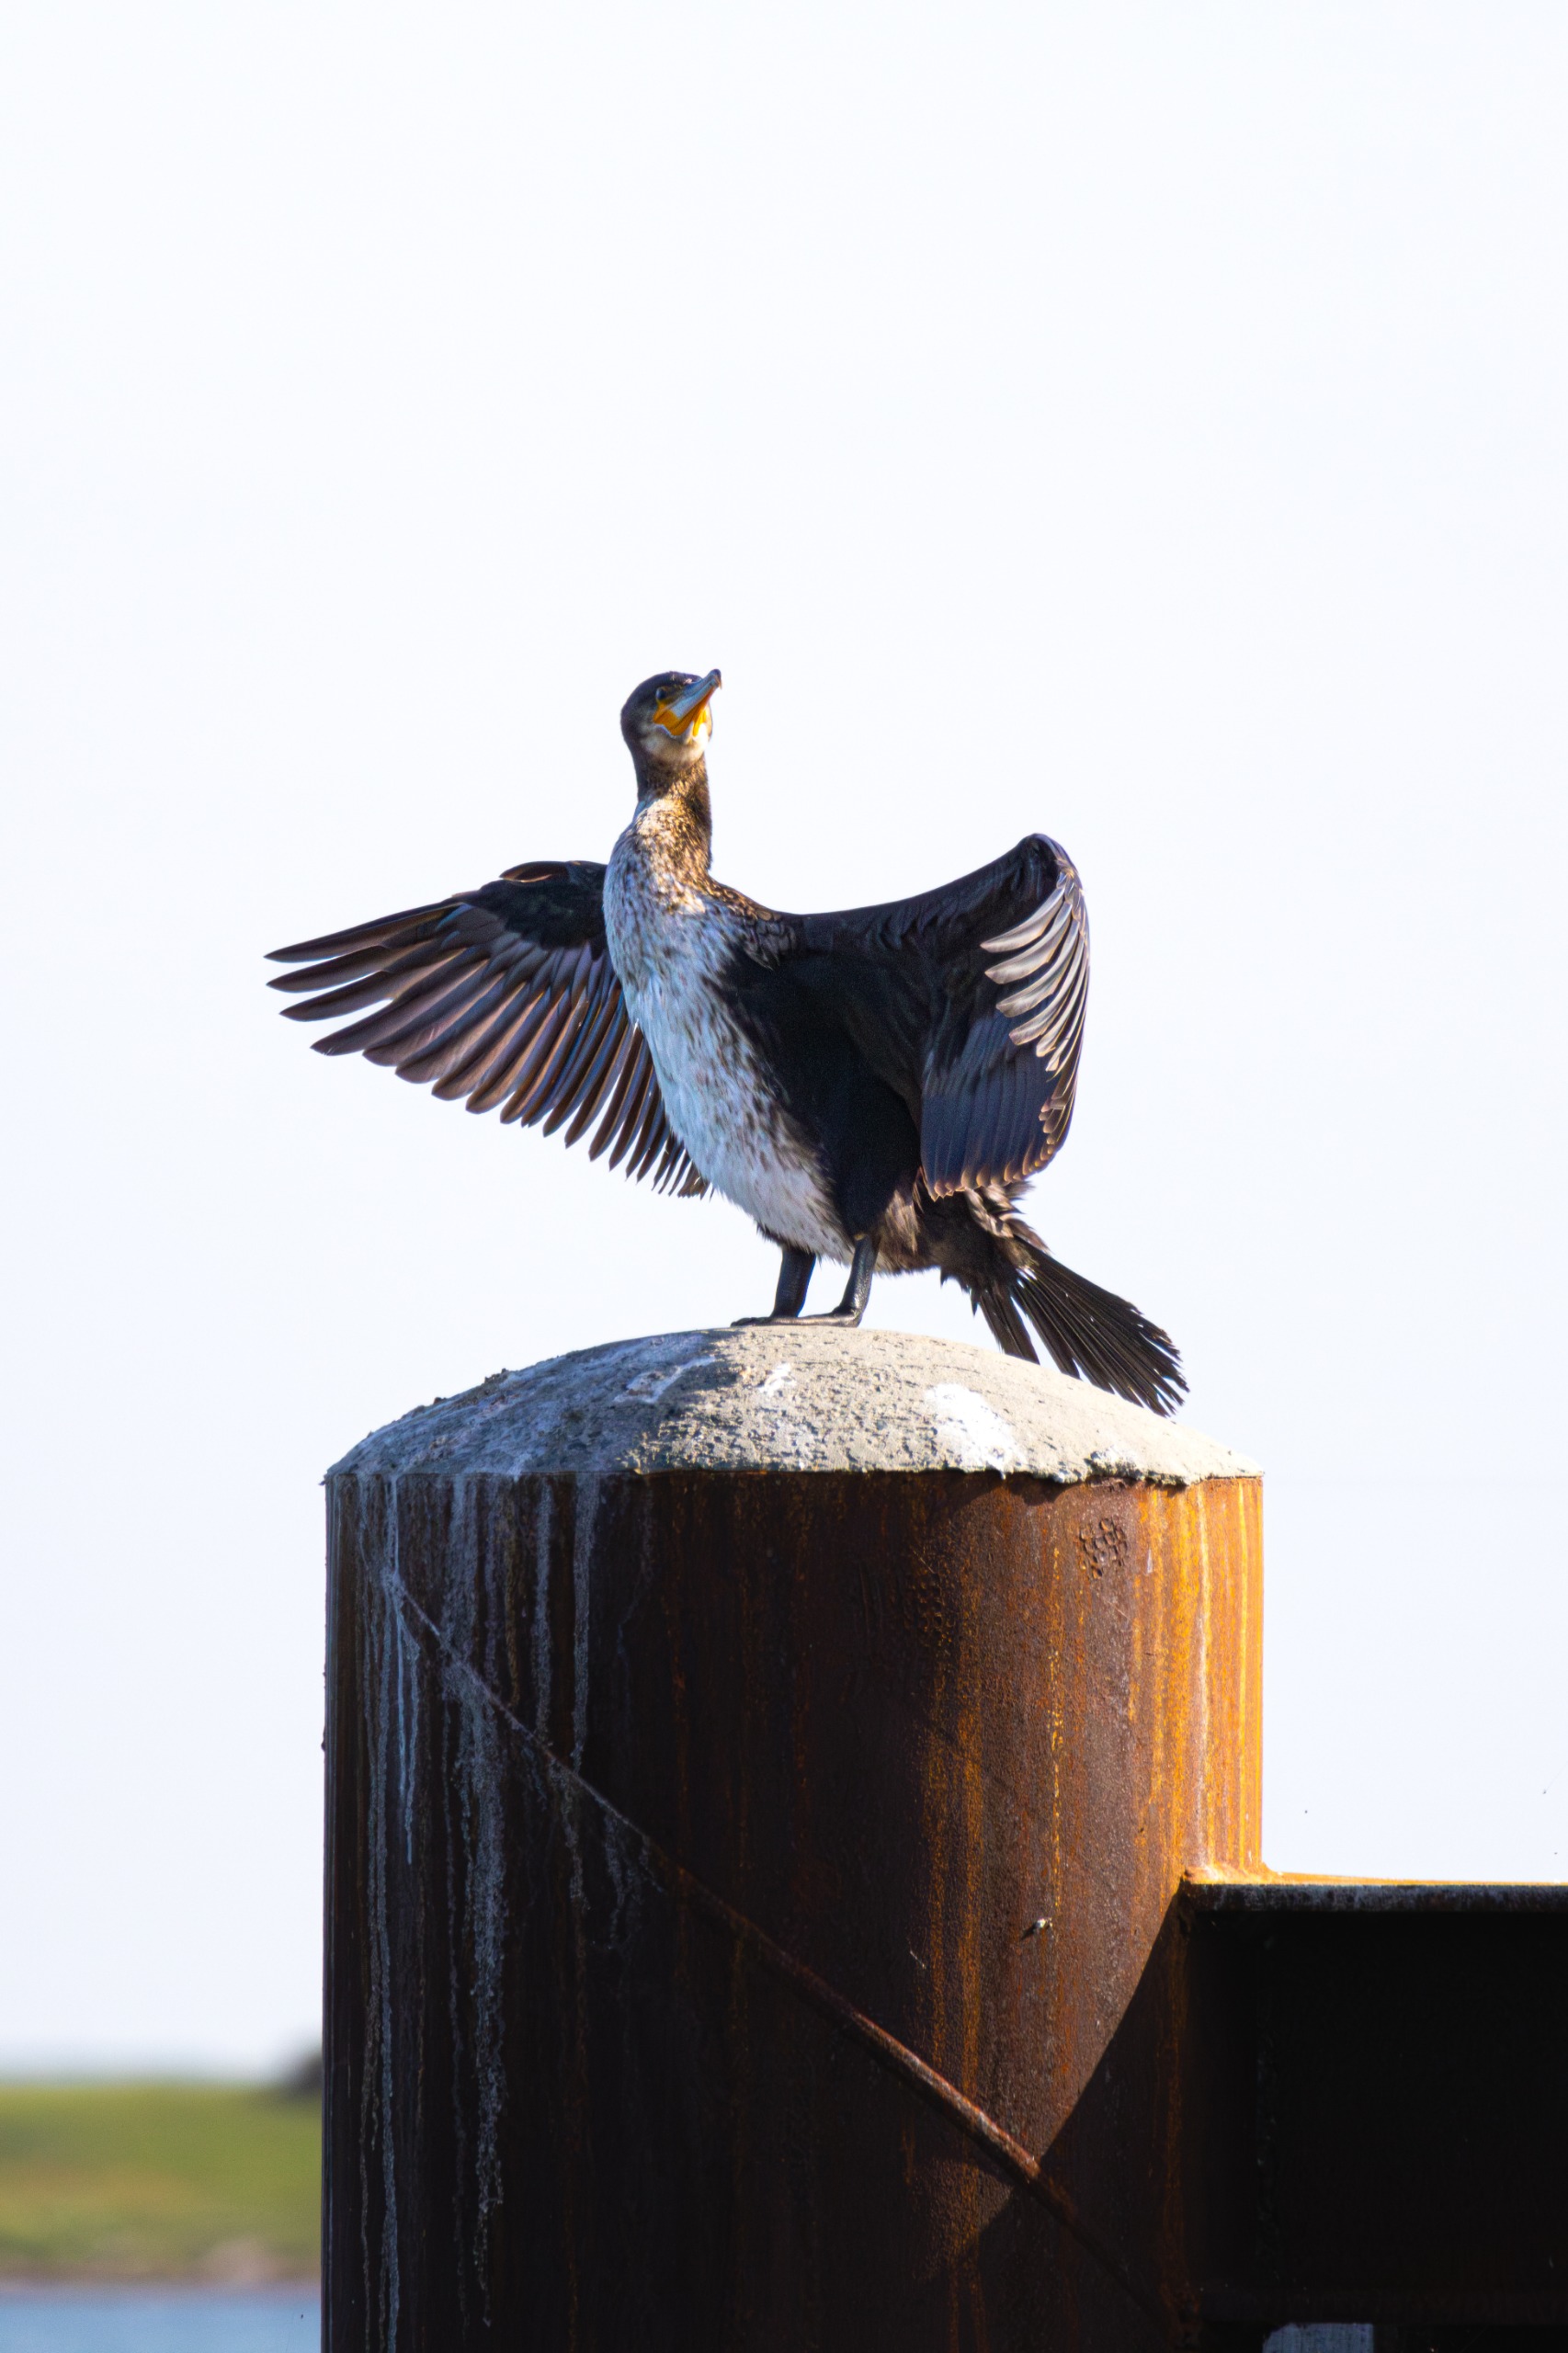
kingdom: Animalia
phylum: Chordata
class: Aves
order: Suliformes
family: Phalacrocoracidae
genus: Phalacrocorax
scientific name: Phalacrocorax carbo
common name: Skarv
